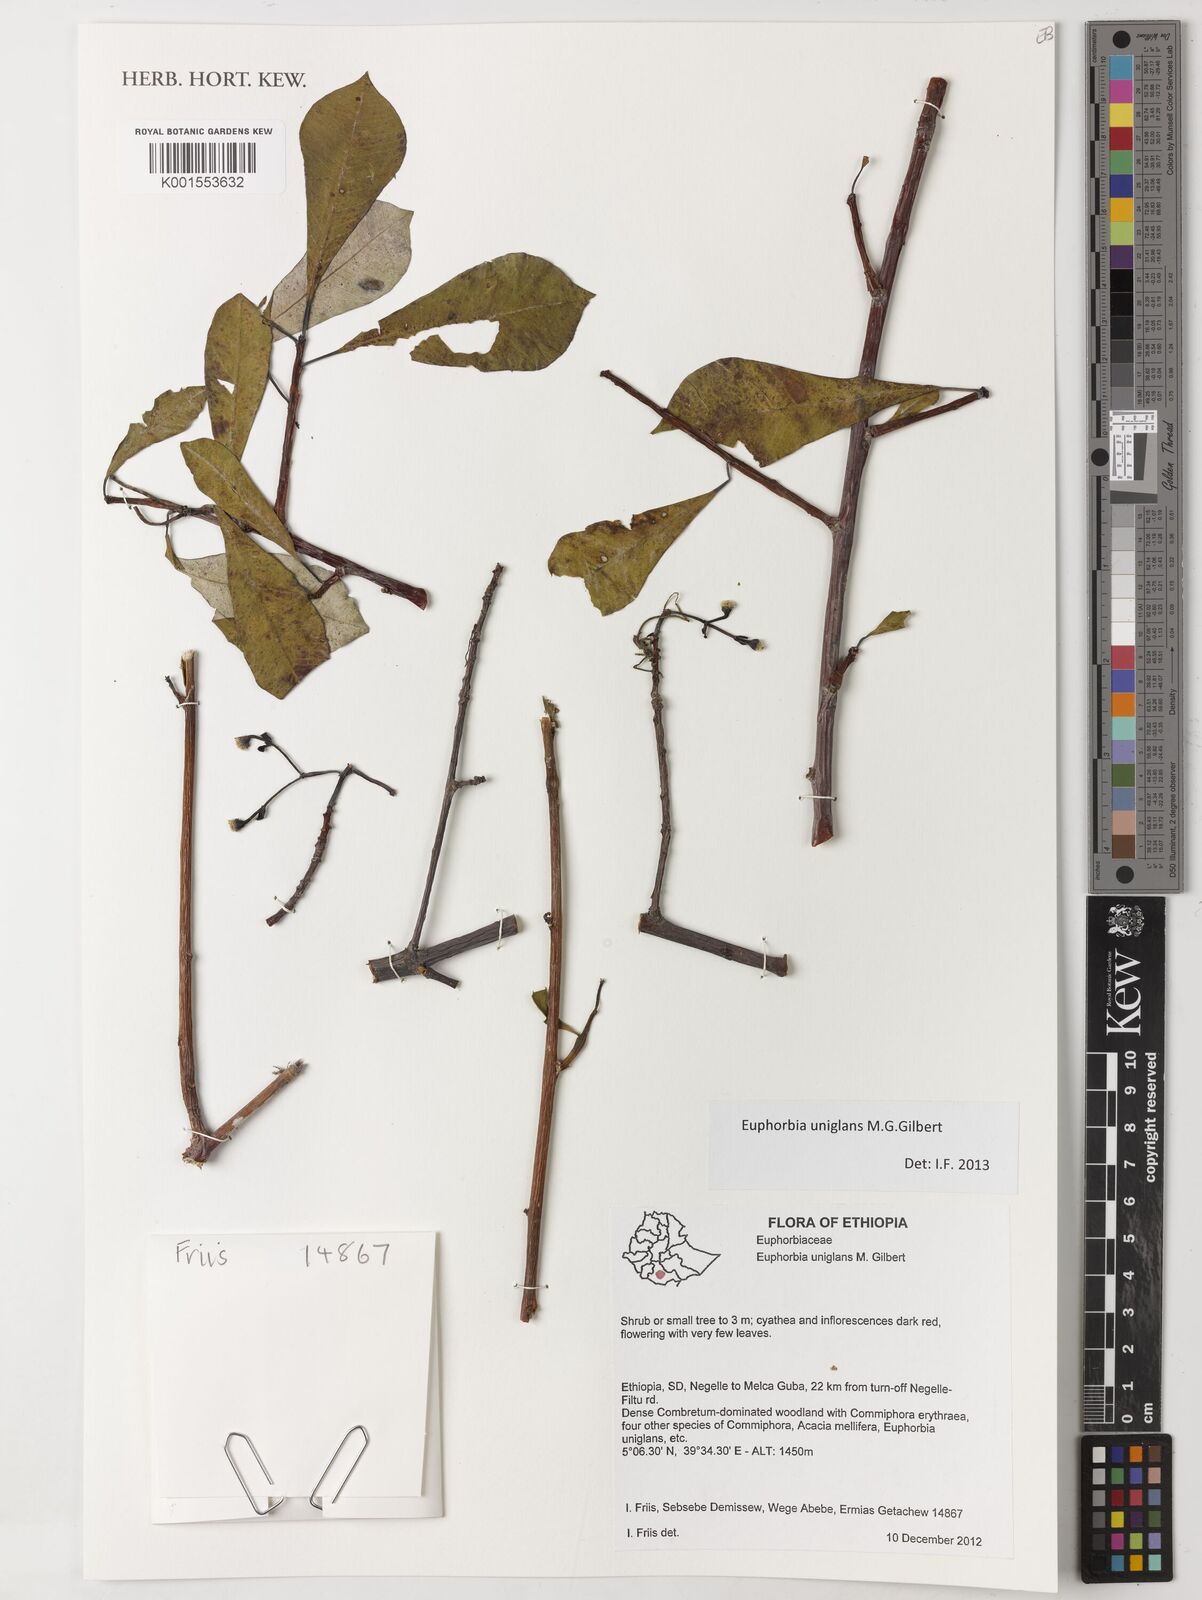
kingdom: Plantae
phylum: Tracheophyta
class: Magnoliopsida
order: Malpighiales
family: Euphorbiaceae
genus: Euphorbia
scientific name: Euphorbia uniglans
